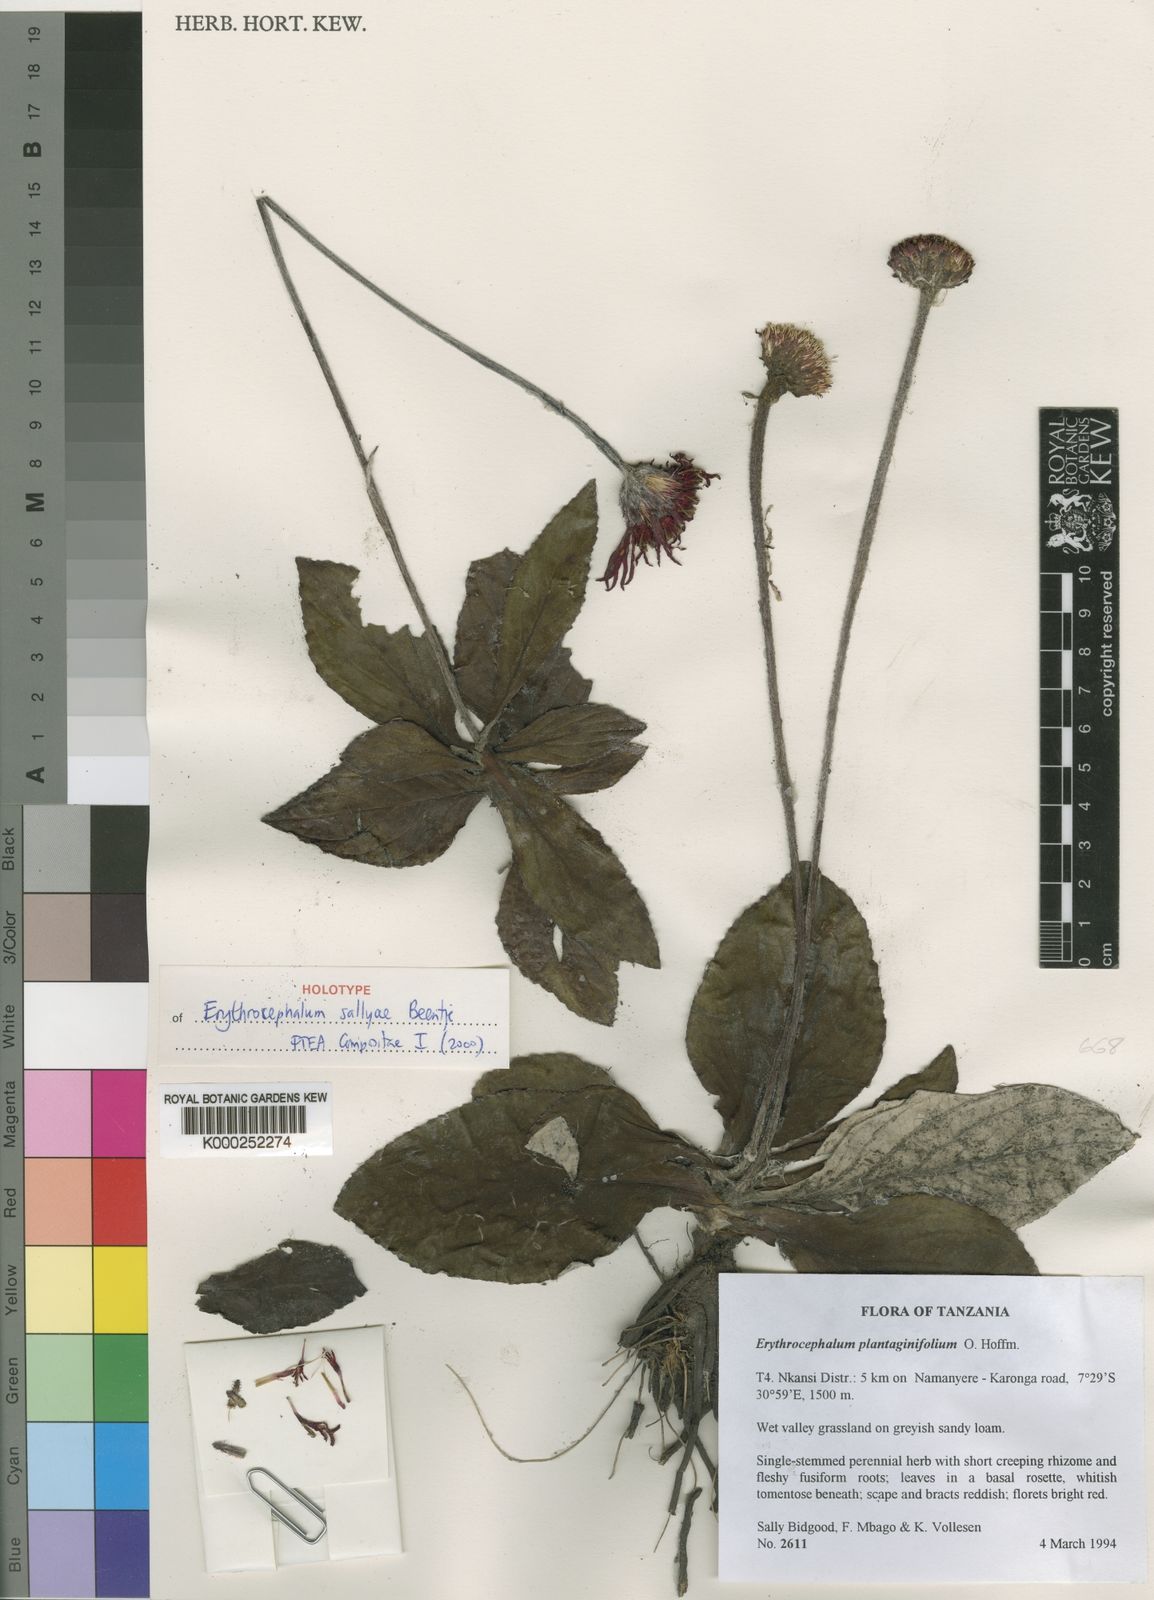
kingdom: Plantae
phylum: Tracheophyta
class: Magnoliopsida
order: Asterales
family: Asteraceae
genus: Erythrocephalum
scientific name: Erythrocephalum sallyae
